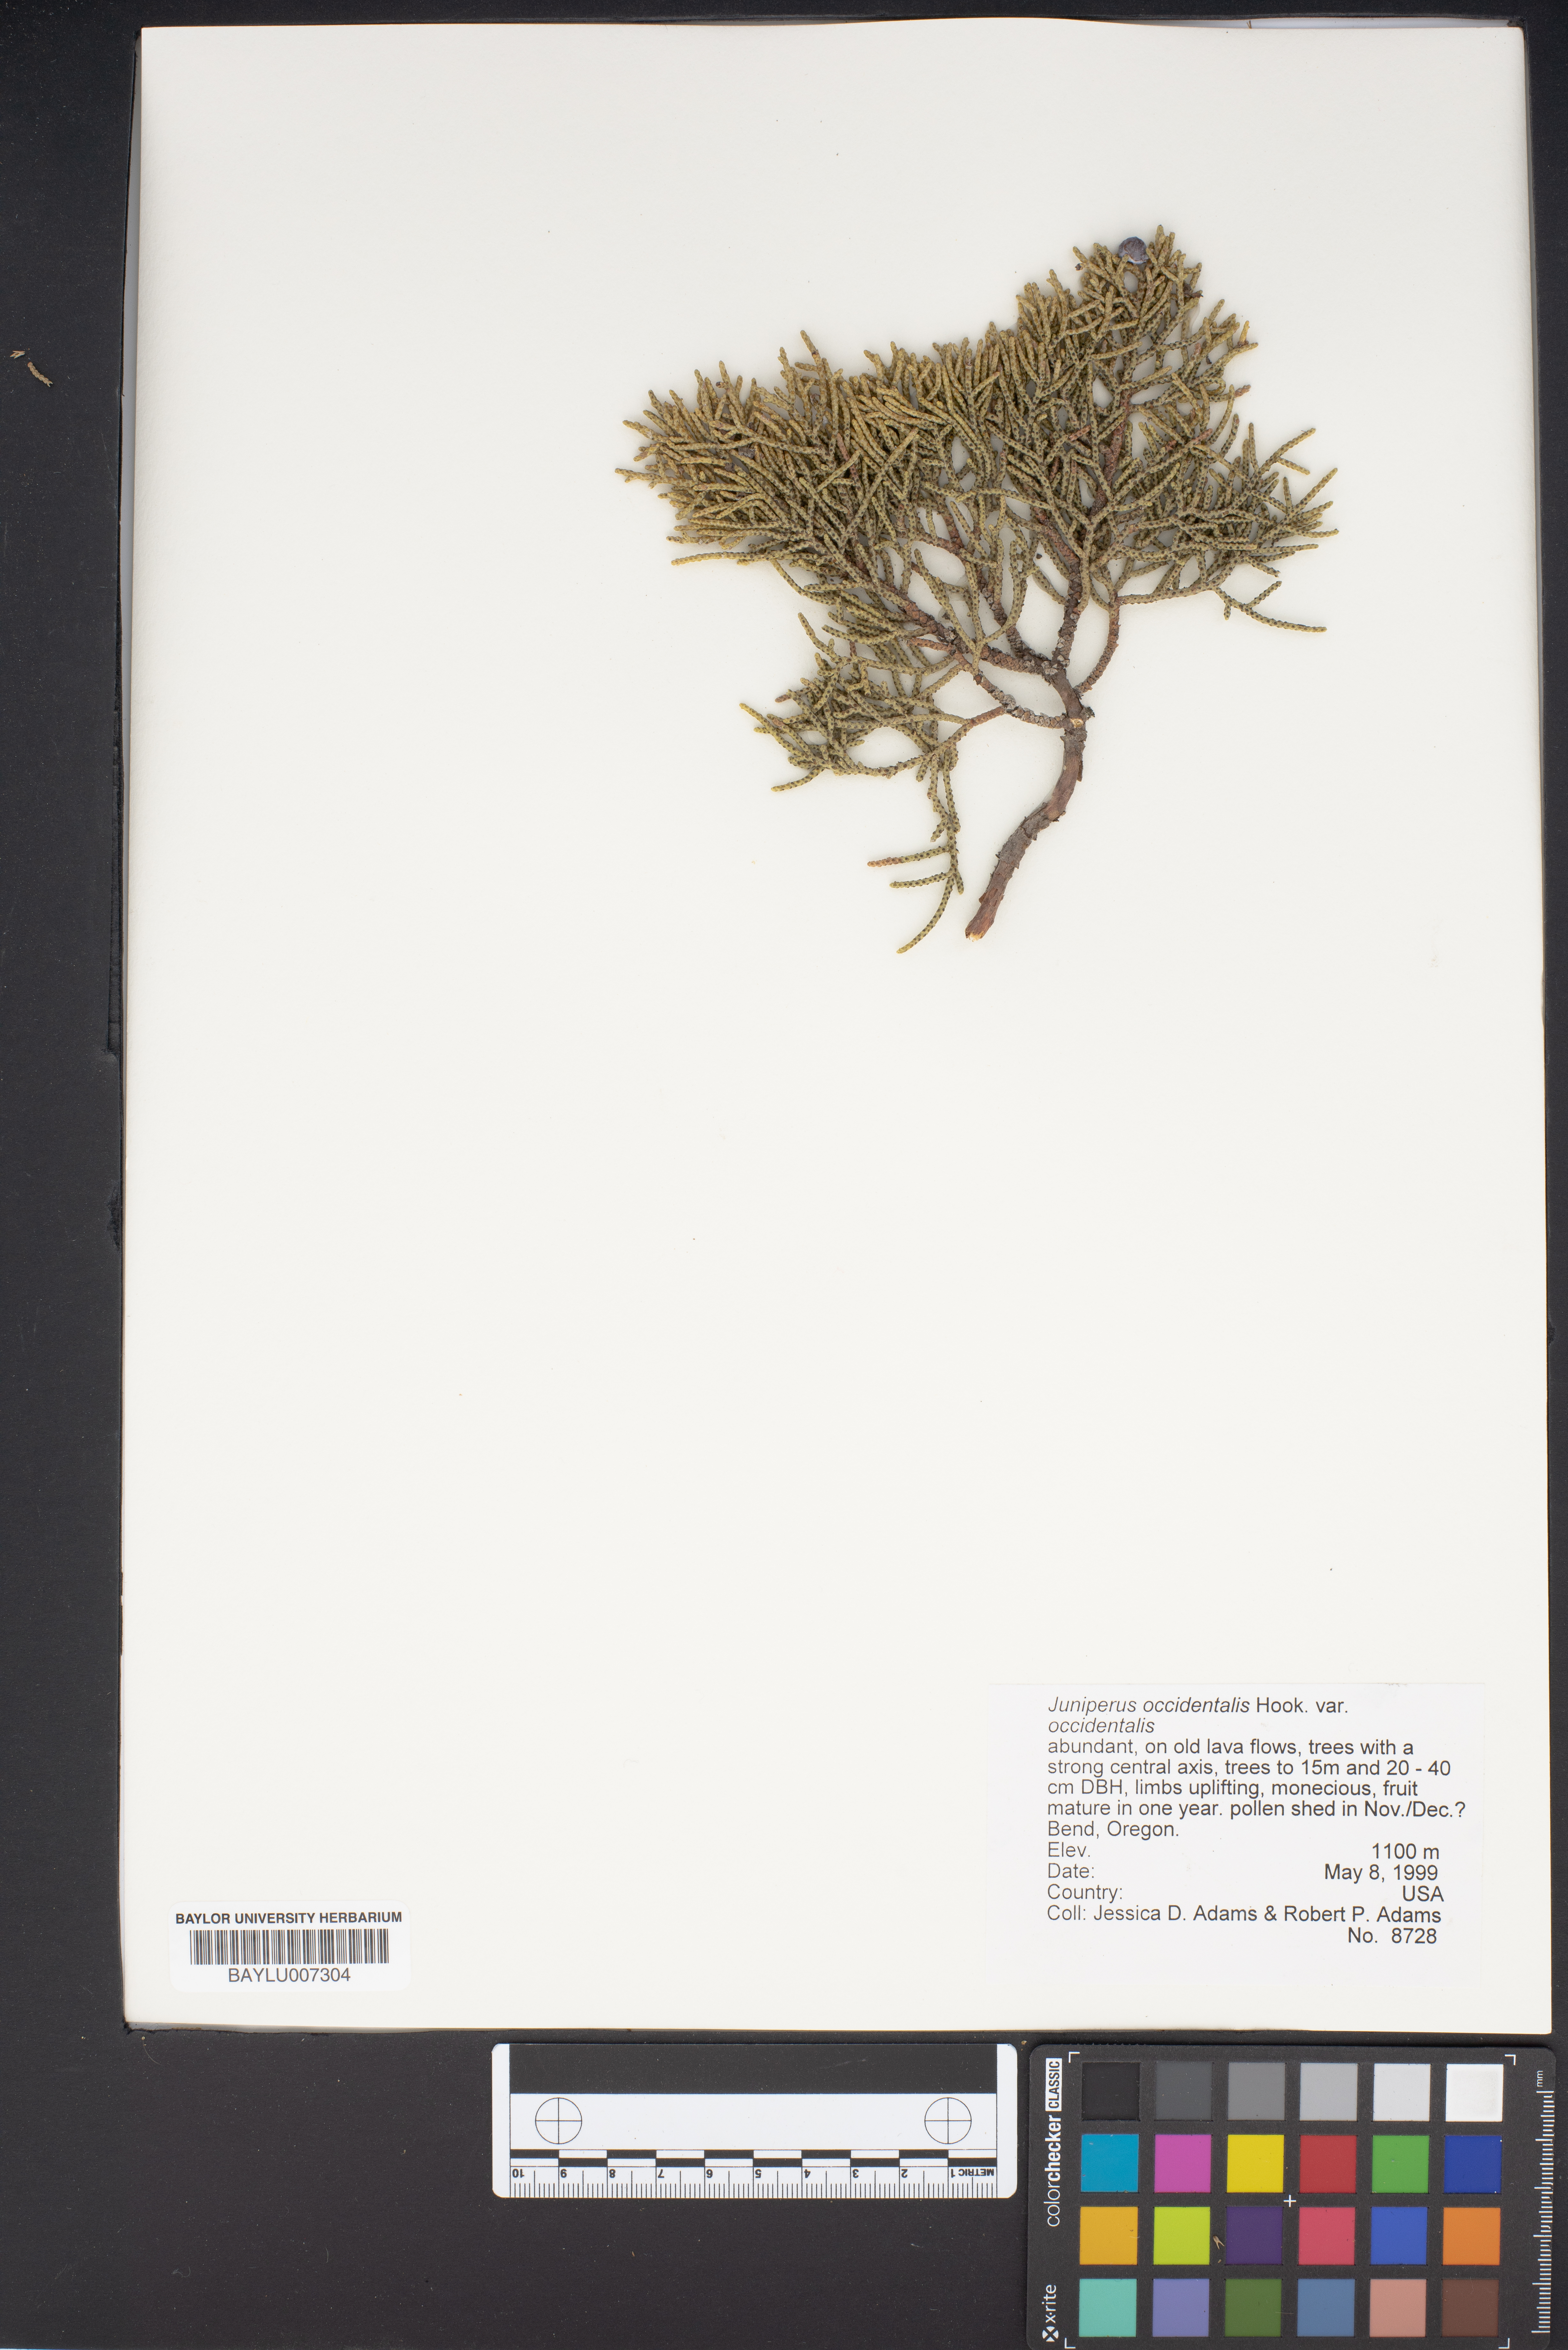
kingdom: Plantae
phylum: Tracheophyta
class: Pinopsida
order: Pinales
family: Cupressaceae
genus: Juniperus
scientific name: Juniperus occidentalis
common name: Western juniper
